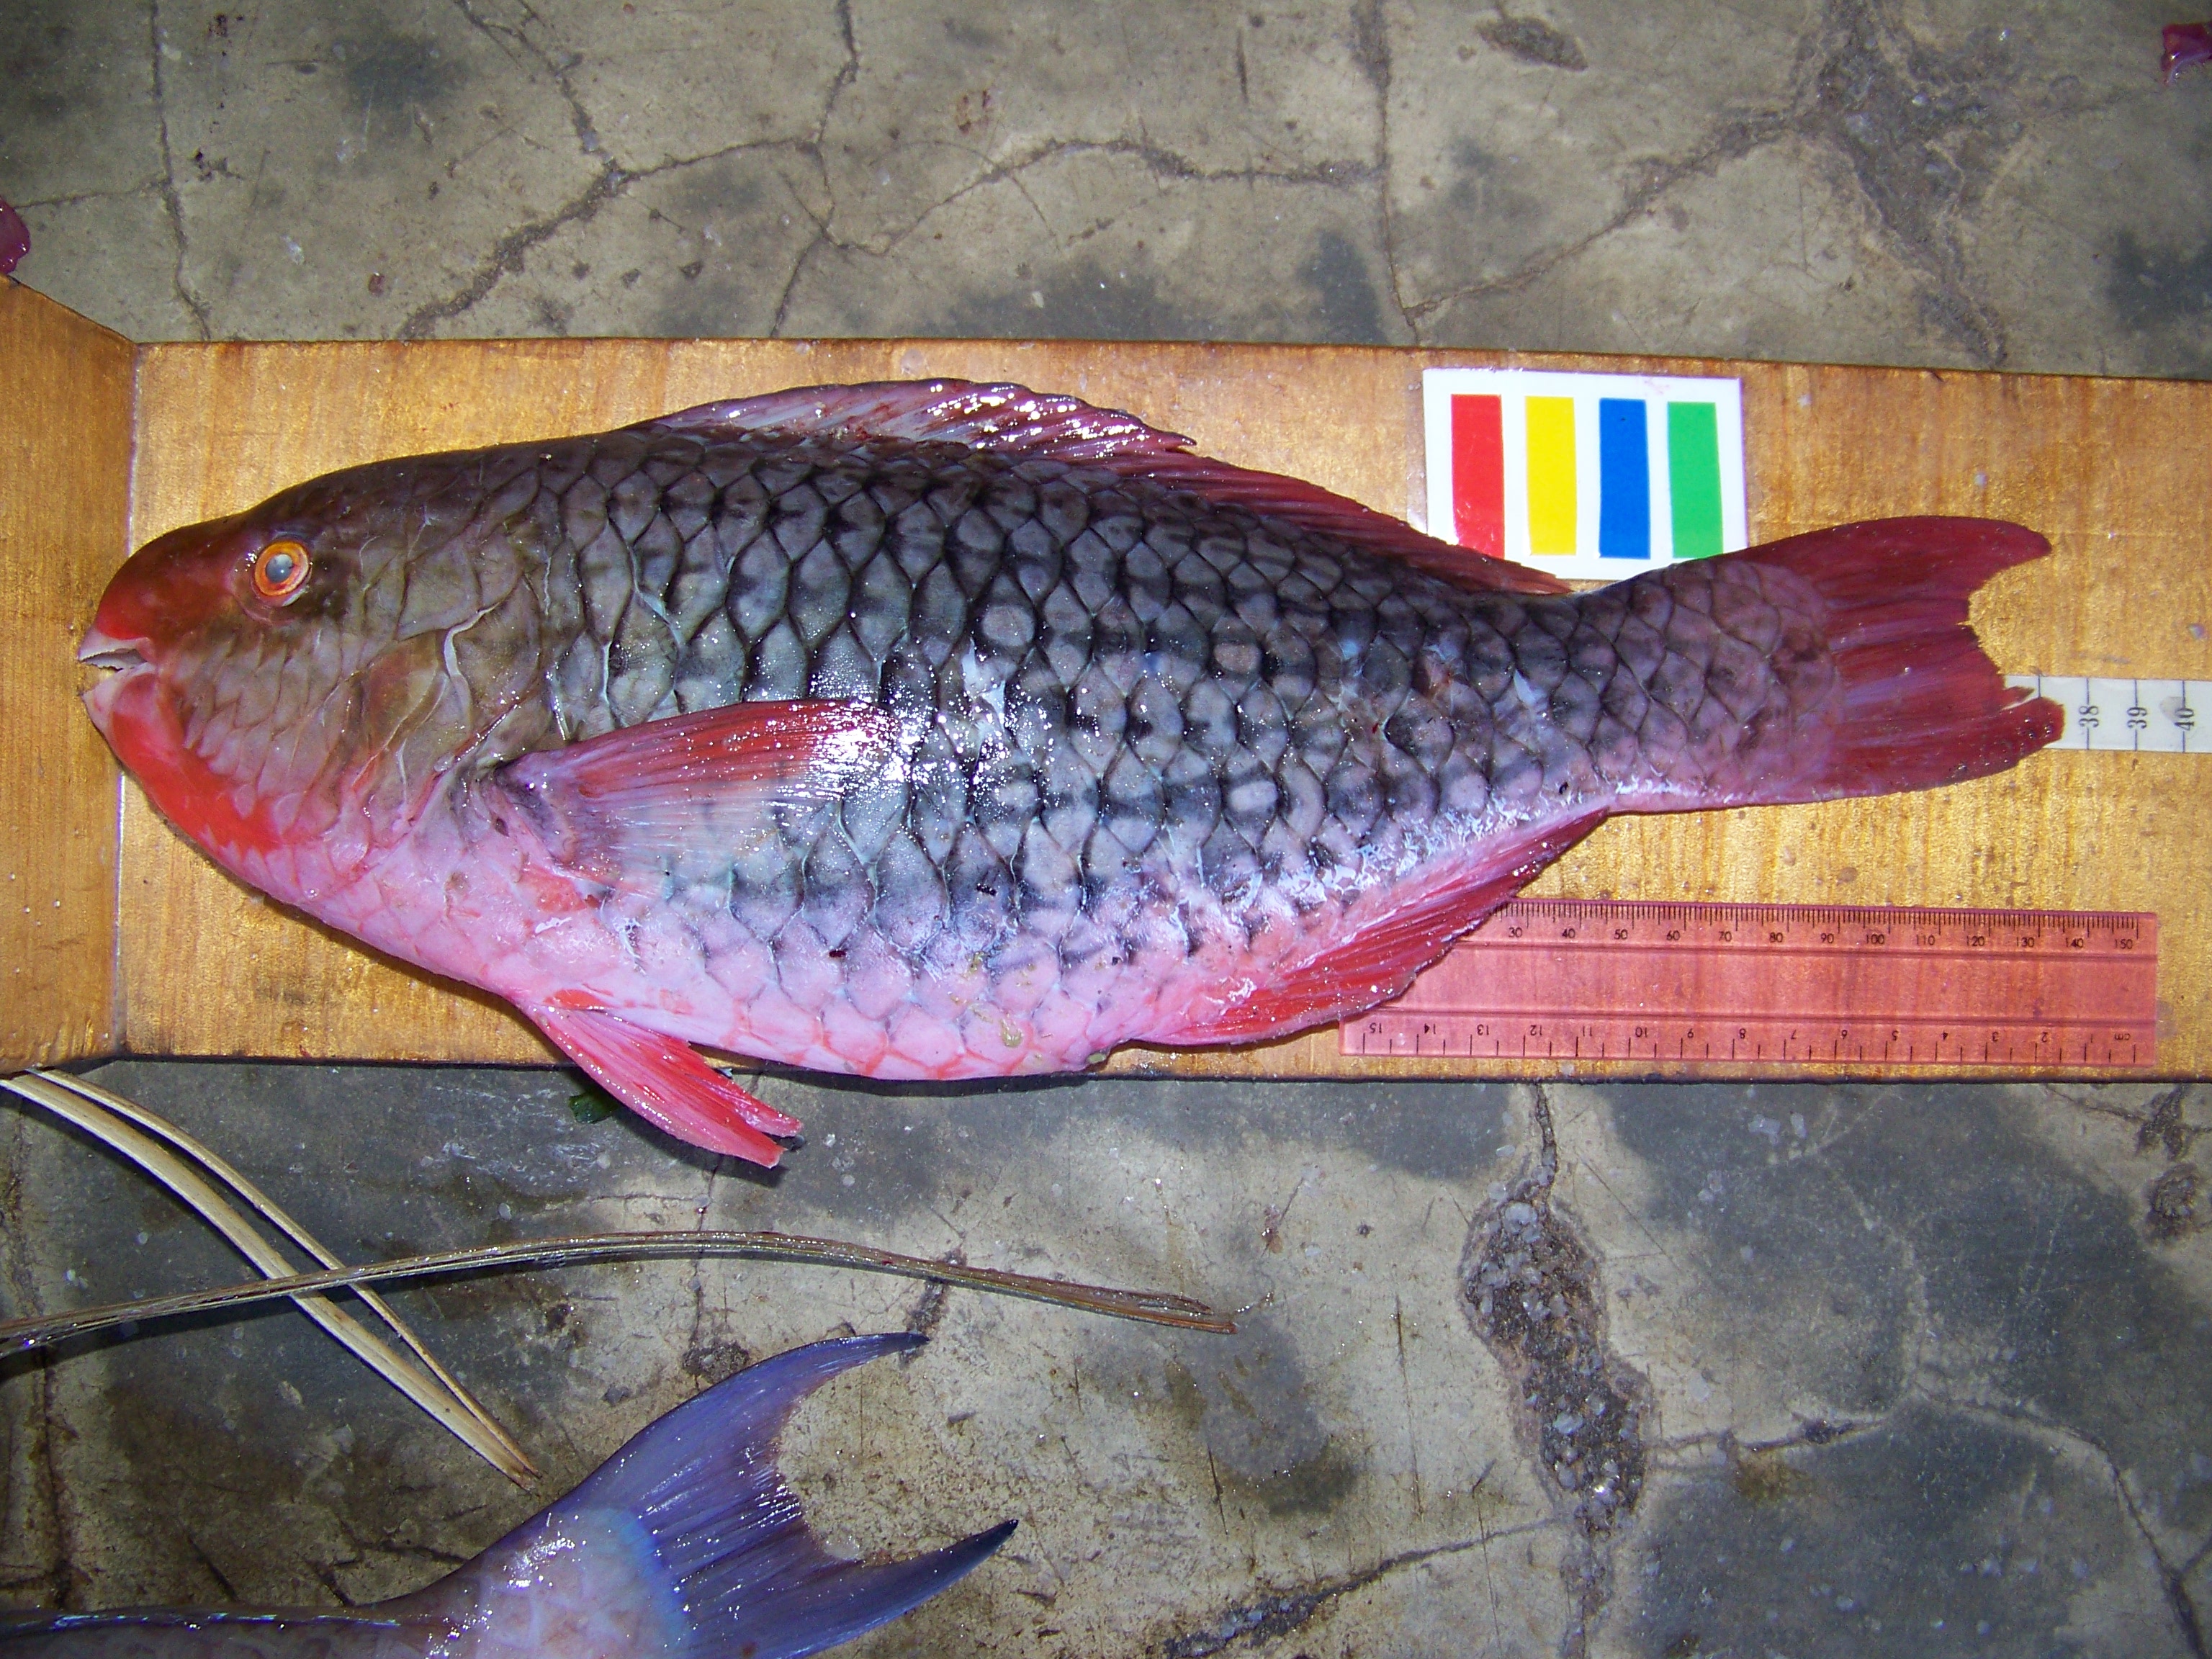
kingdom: Animalia
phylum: Chordata
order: Perciformes
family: Scaridae
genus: Scarus
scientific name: Scarus rubroviolaceus
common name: Ember parrotfish
